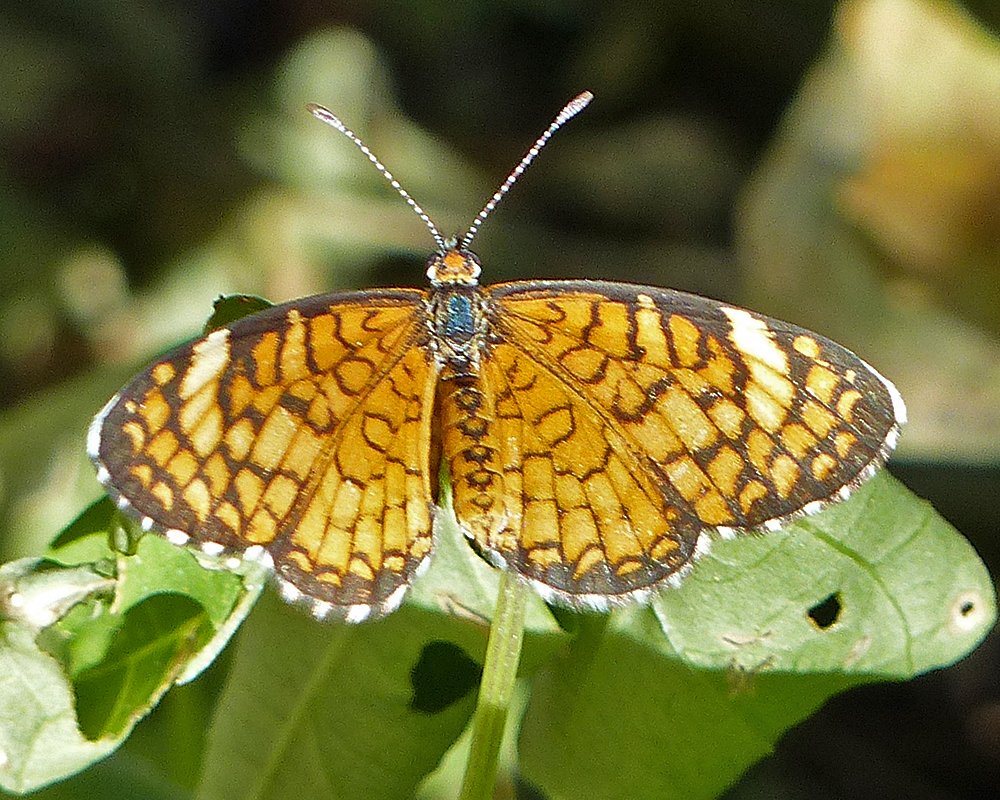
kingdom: Animalia
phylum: Arthropoda
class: Insecta
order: Lepidoptera
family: Nymphalidae
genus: Dymasia
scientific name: Dymasia dymas
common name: Tiny Checkerspot
